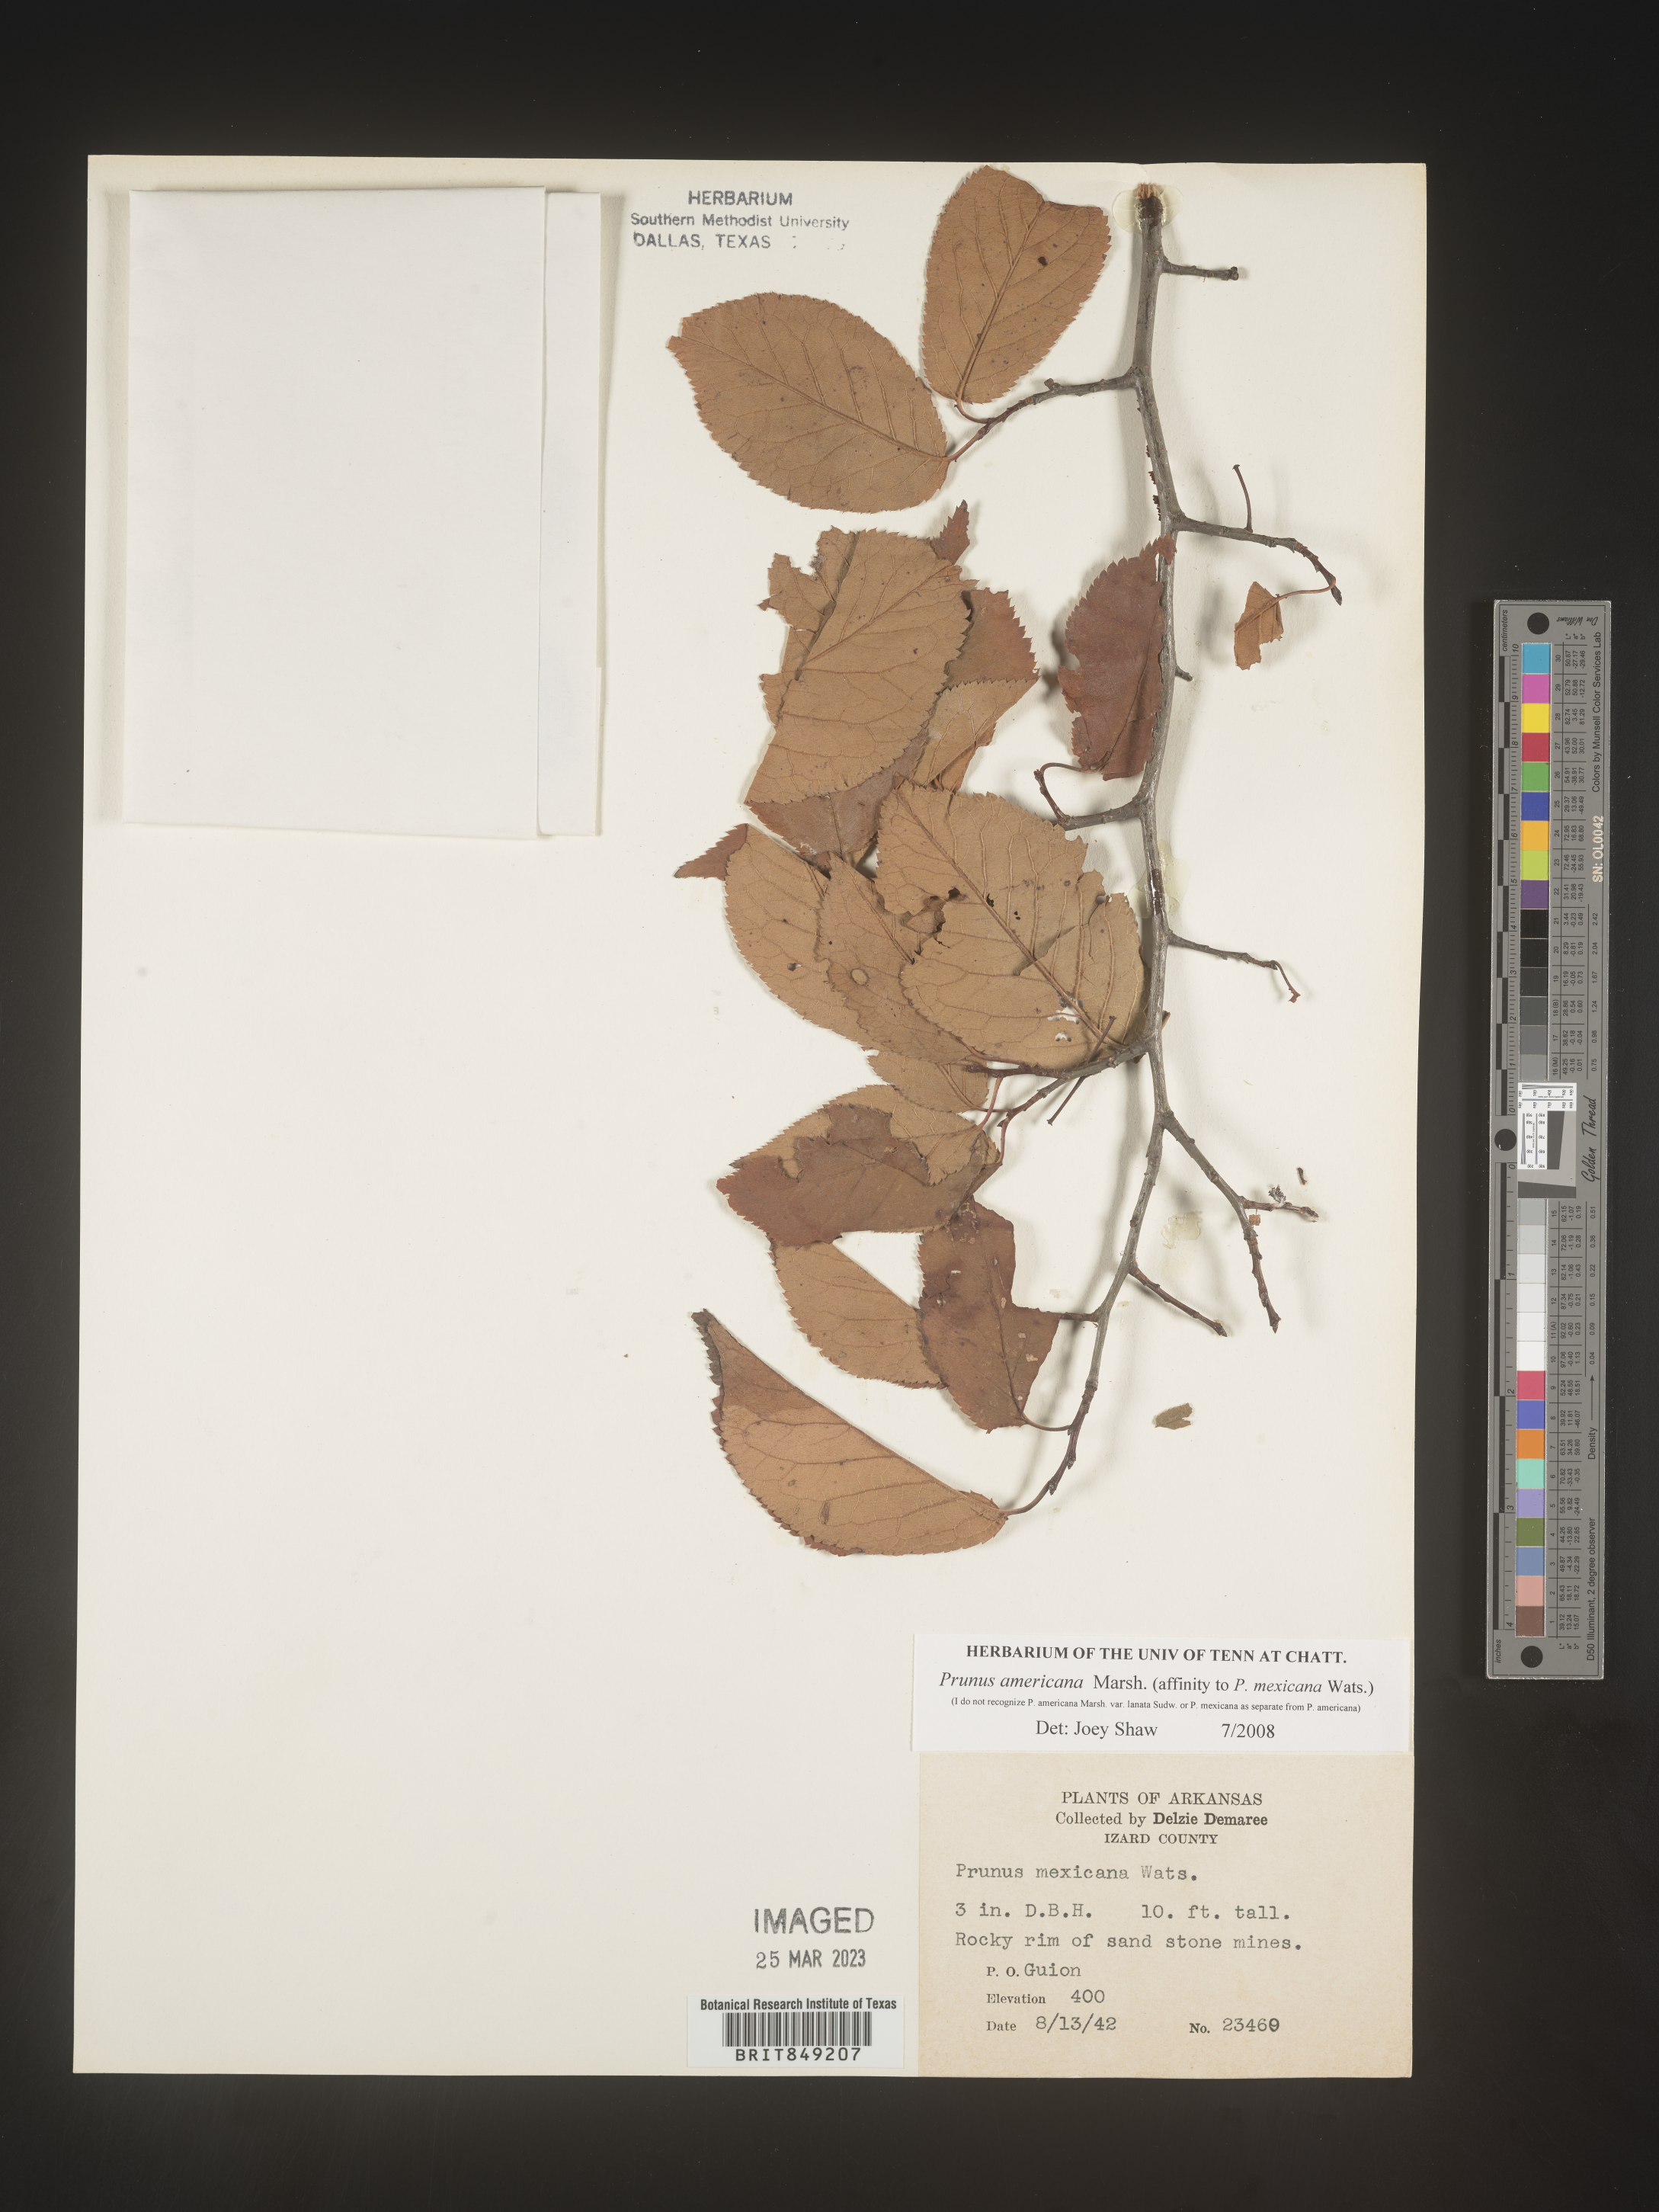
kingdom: Plantae
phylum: Tracheophyta
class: Magnoliopsida
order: Rosales
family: Rosaceae
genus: Prunus
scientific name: Prunus americana
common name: American plum
